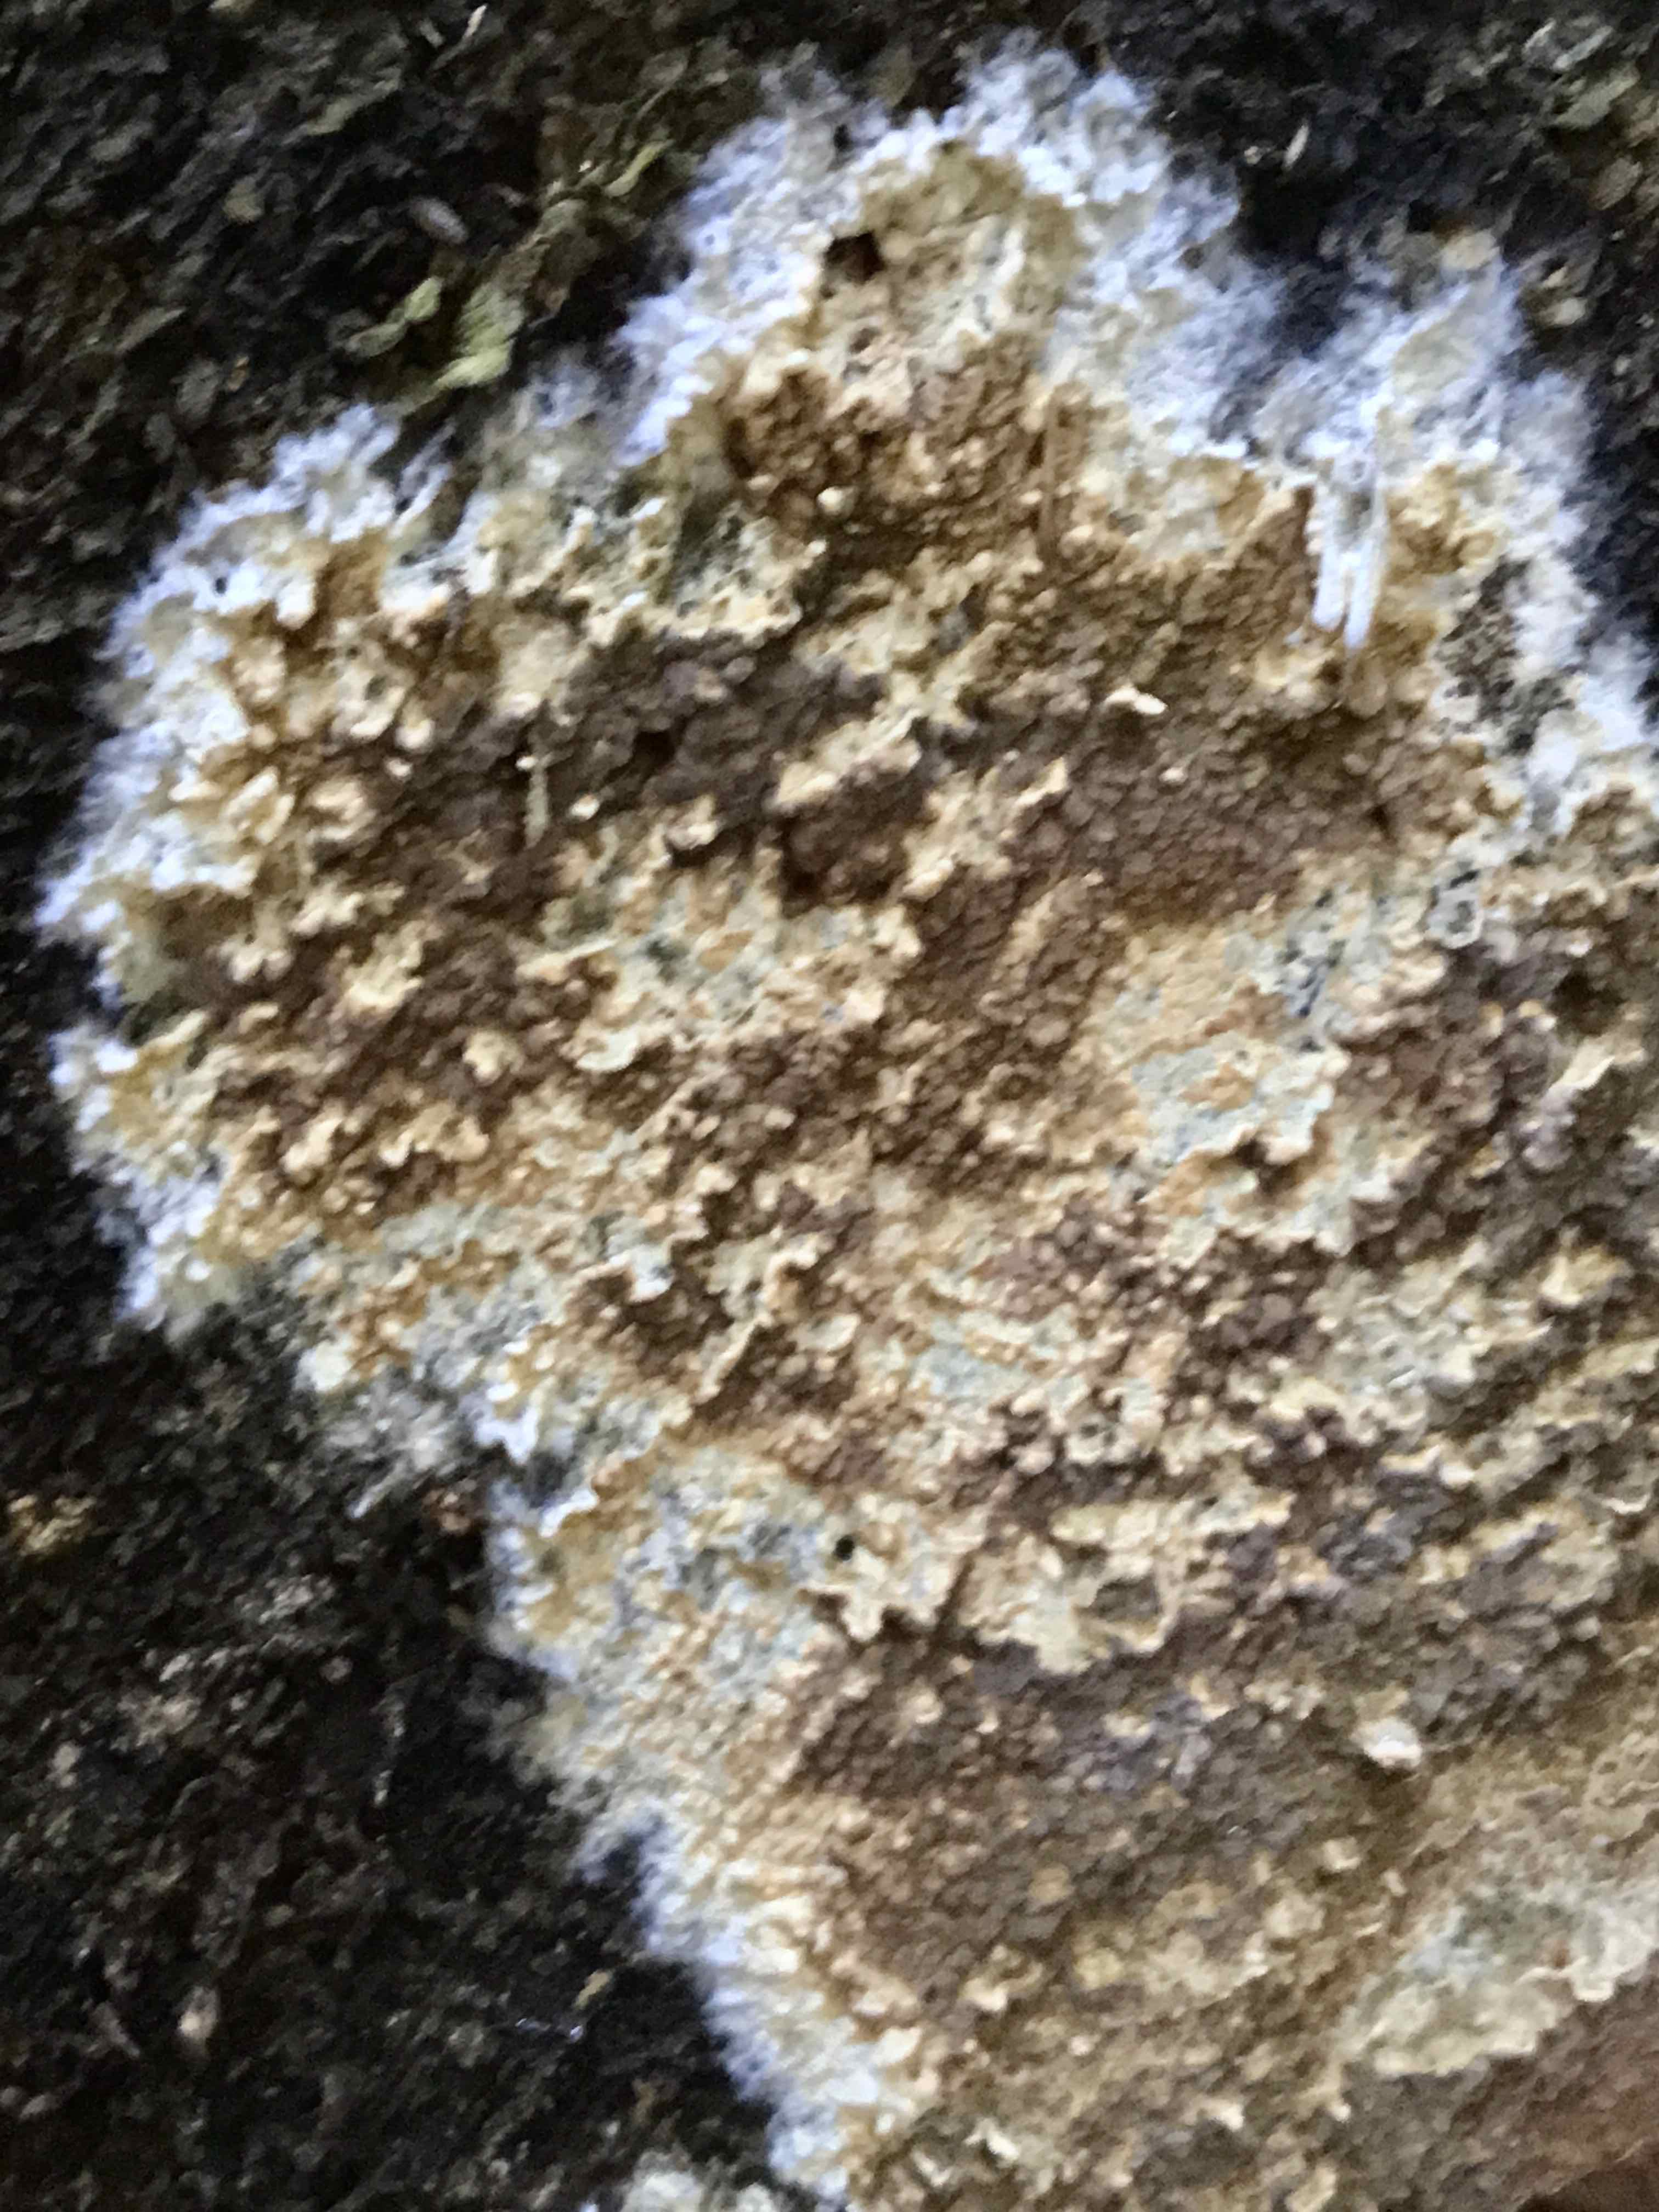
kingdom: Fungi
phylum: Basidiomycota
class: Agaricomycetes
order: Boletales
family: Coniophoraceae
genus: Coniophora
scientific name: Coniophora puteana
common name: gul tømmersvamp
